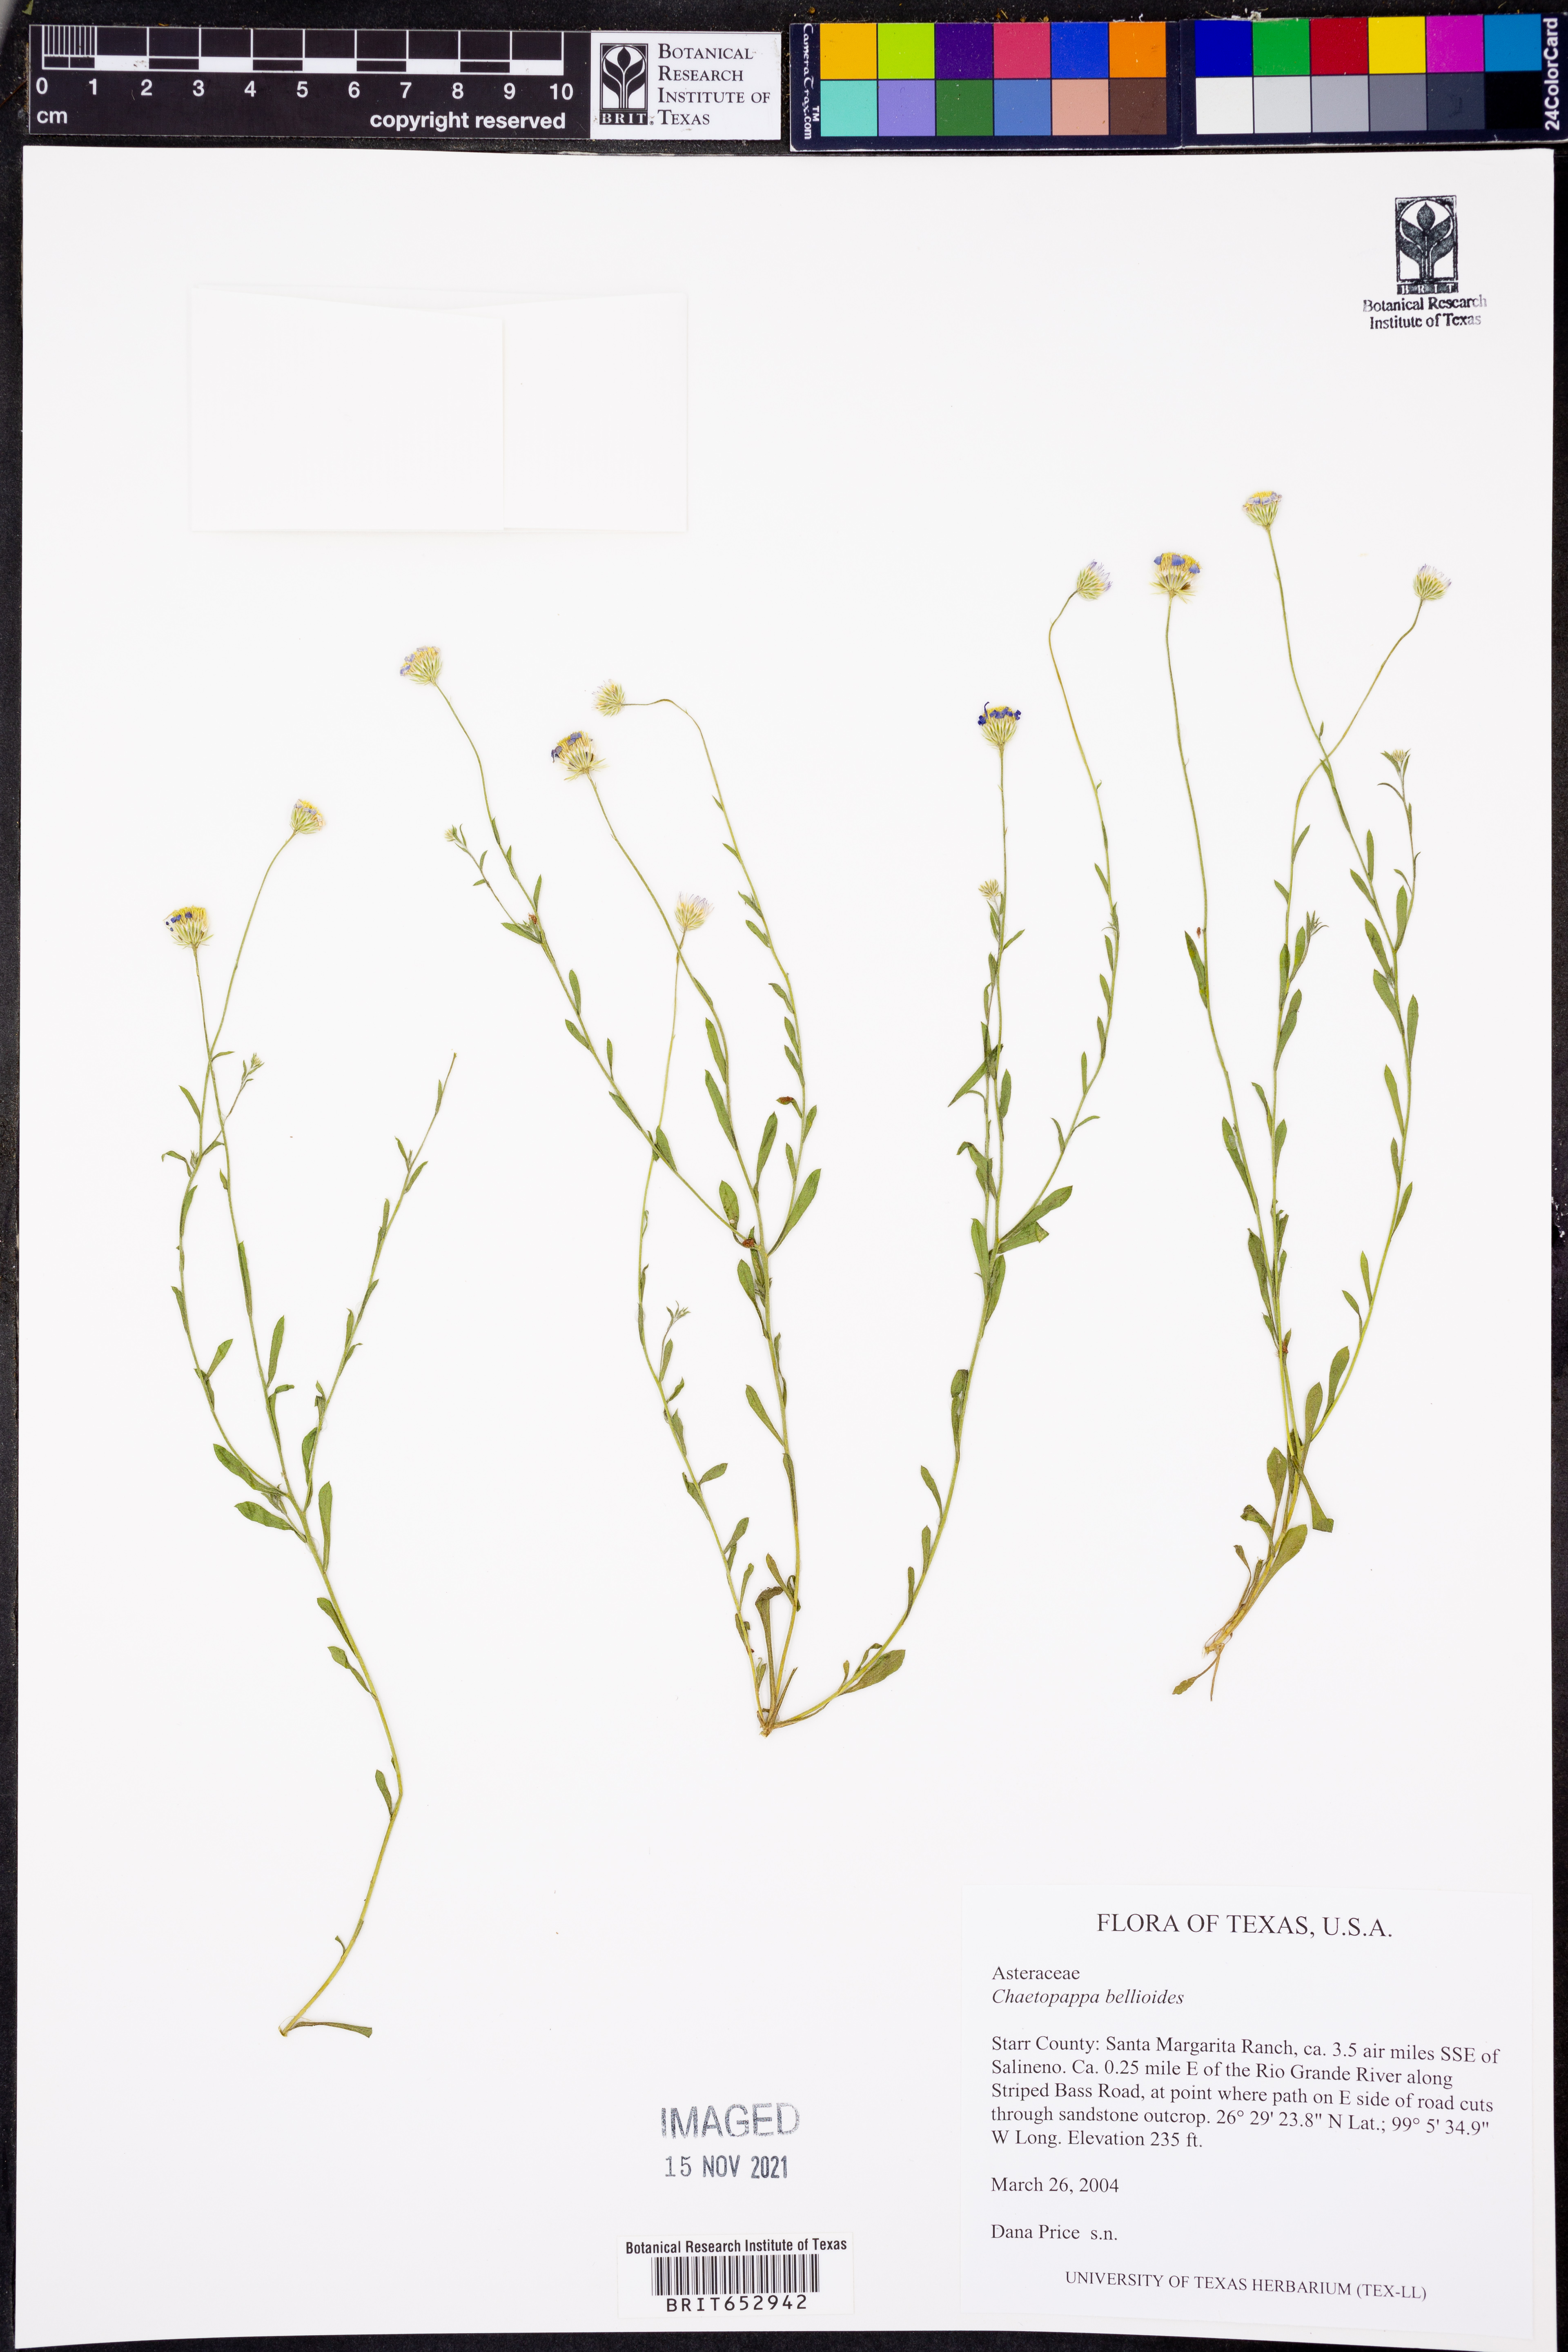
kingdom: Plantae
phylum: Tracheophyta
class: Magnoliopsida
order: Asterales
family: Asteraceae
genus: Chaetopappa
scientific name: Chaetopappa bellioides
